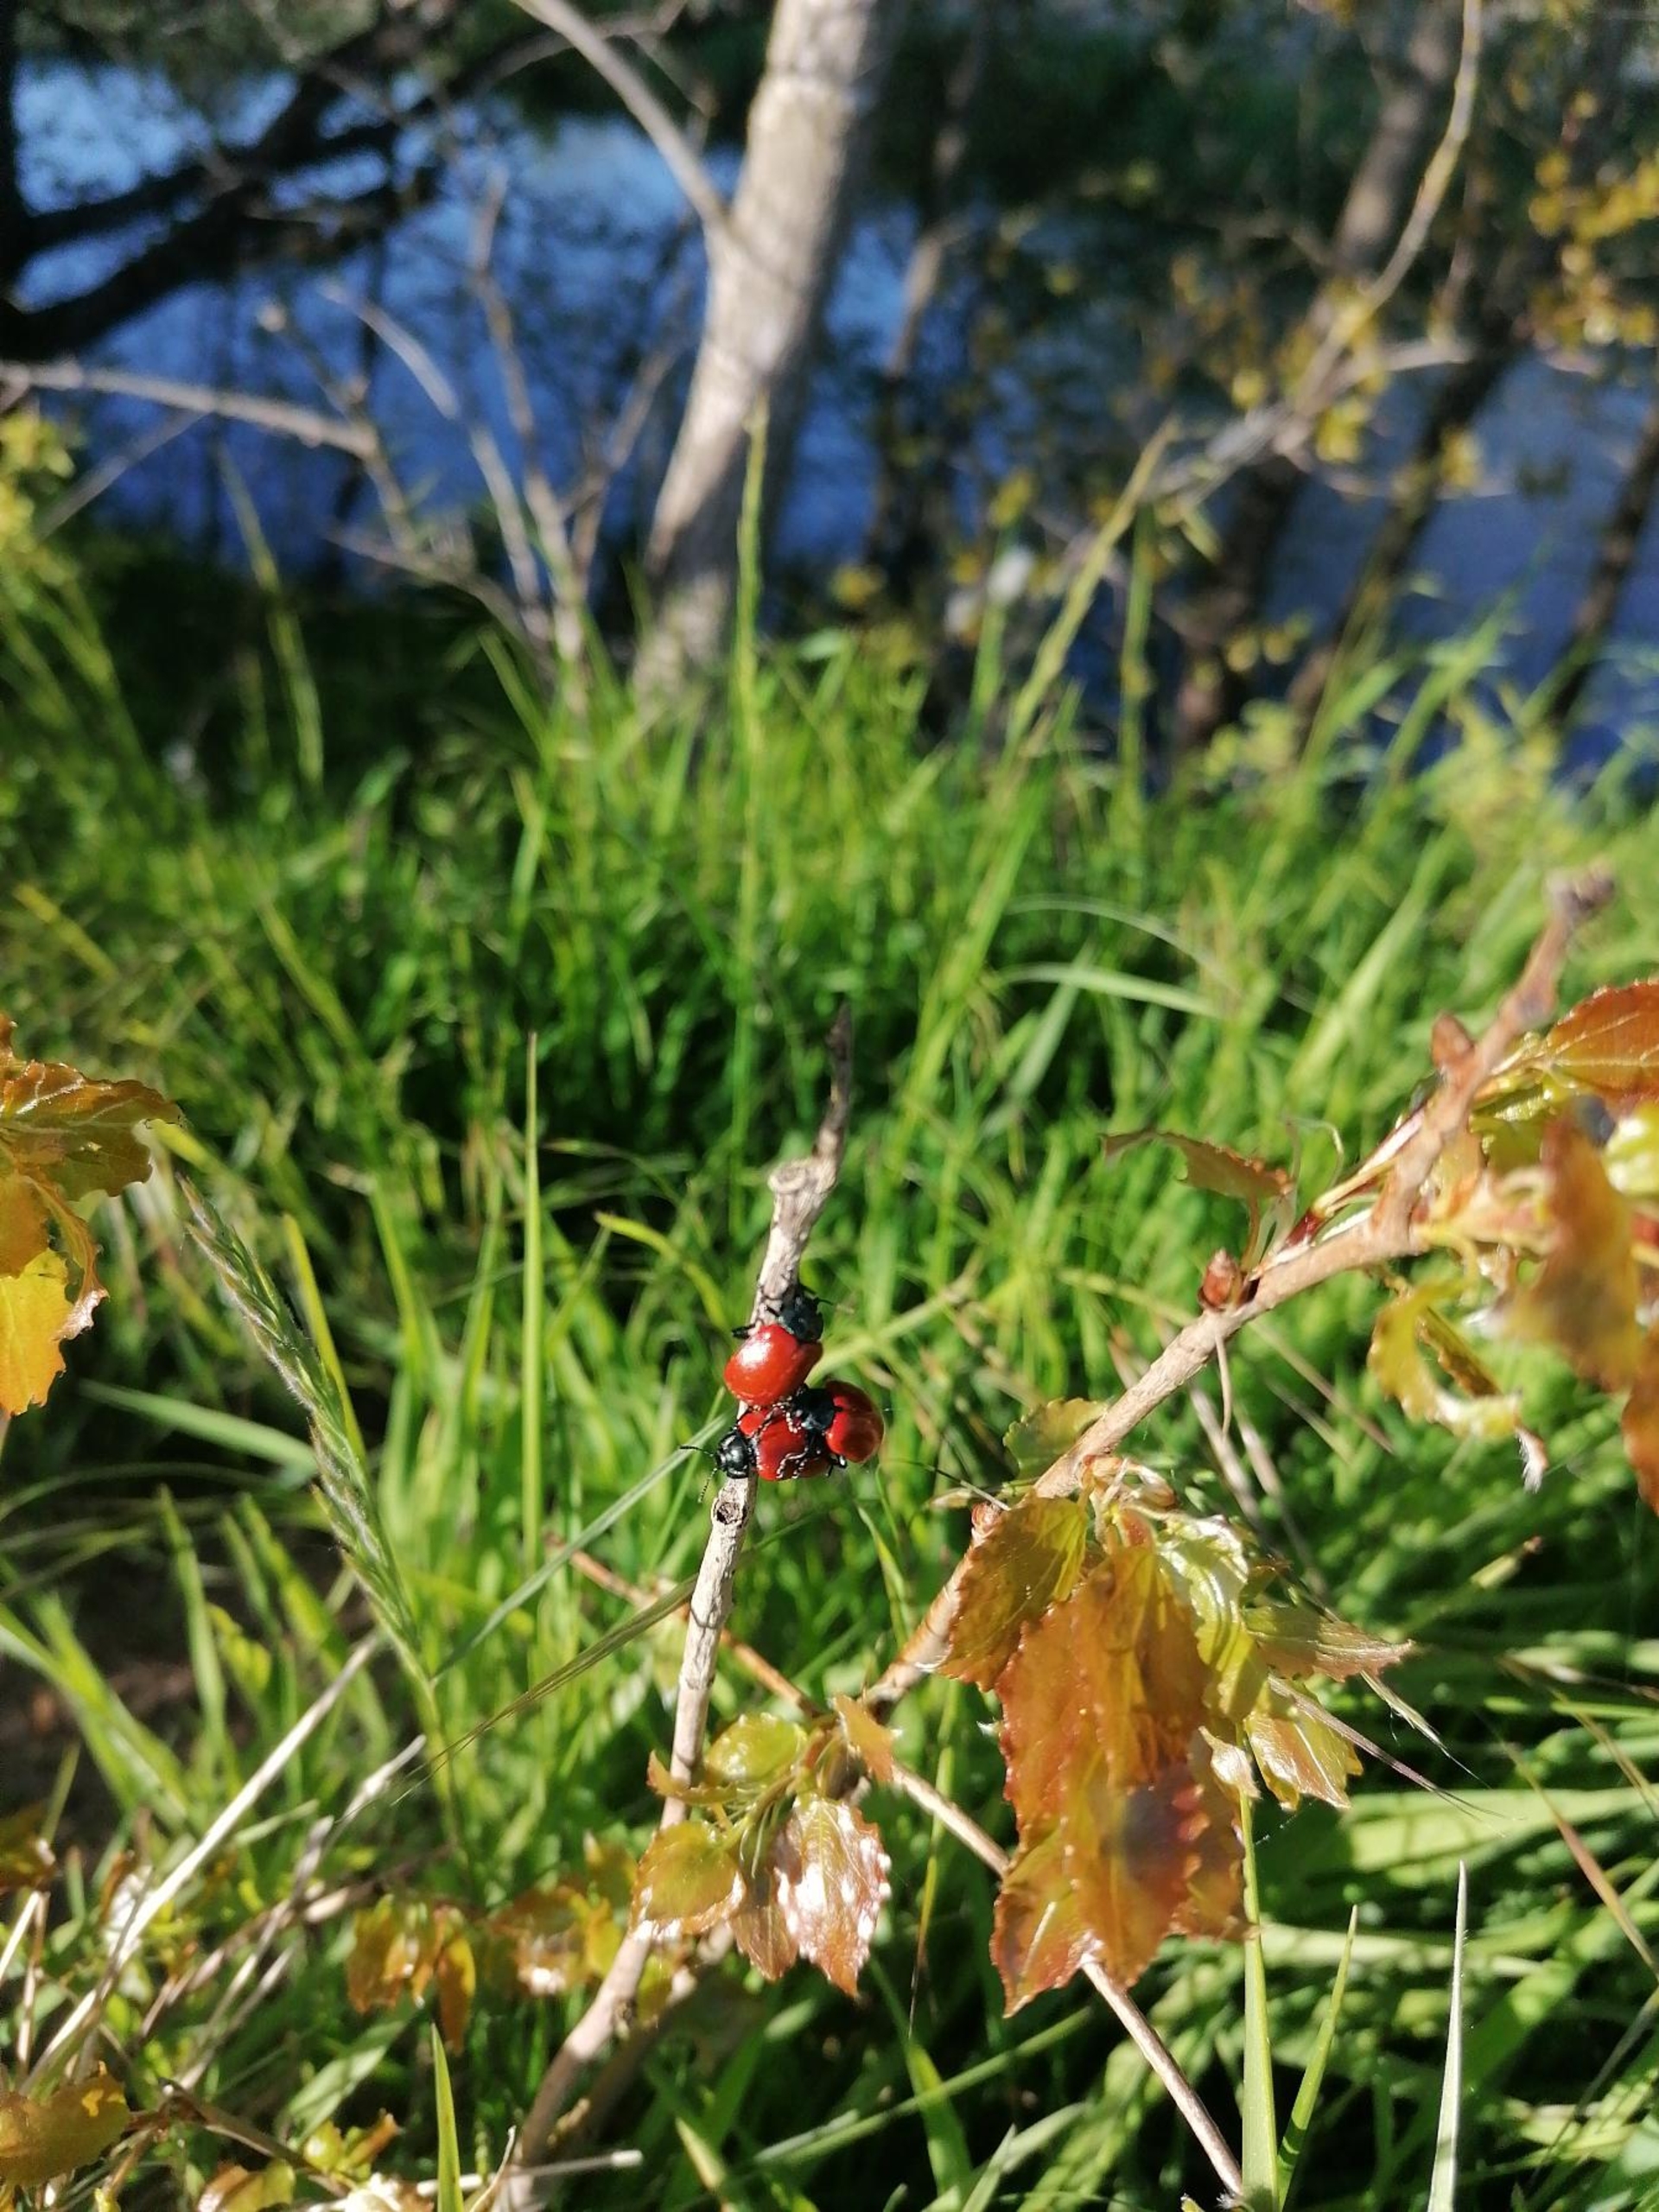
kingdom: Animalia
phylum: Arthropoda
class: Insecta
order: Coleoptera
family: Chrysomelidae
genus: Chrysomela
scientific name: Chrysomela populi
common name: Poppelbladbille
